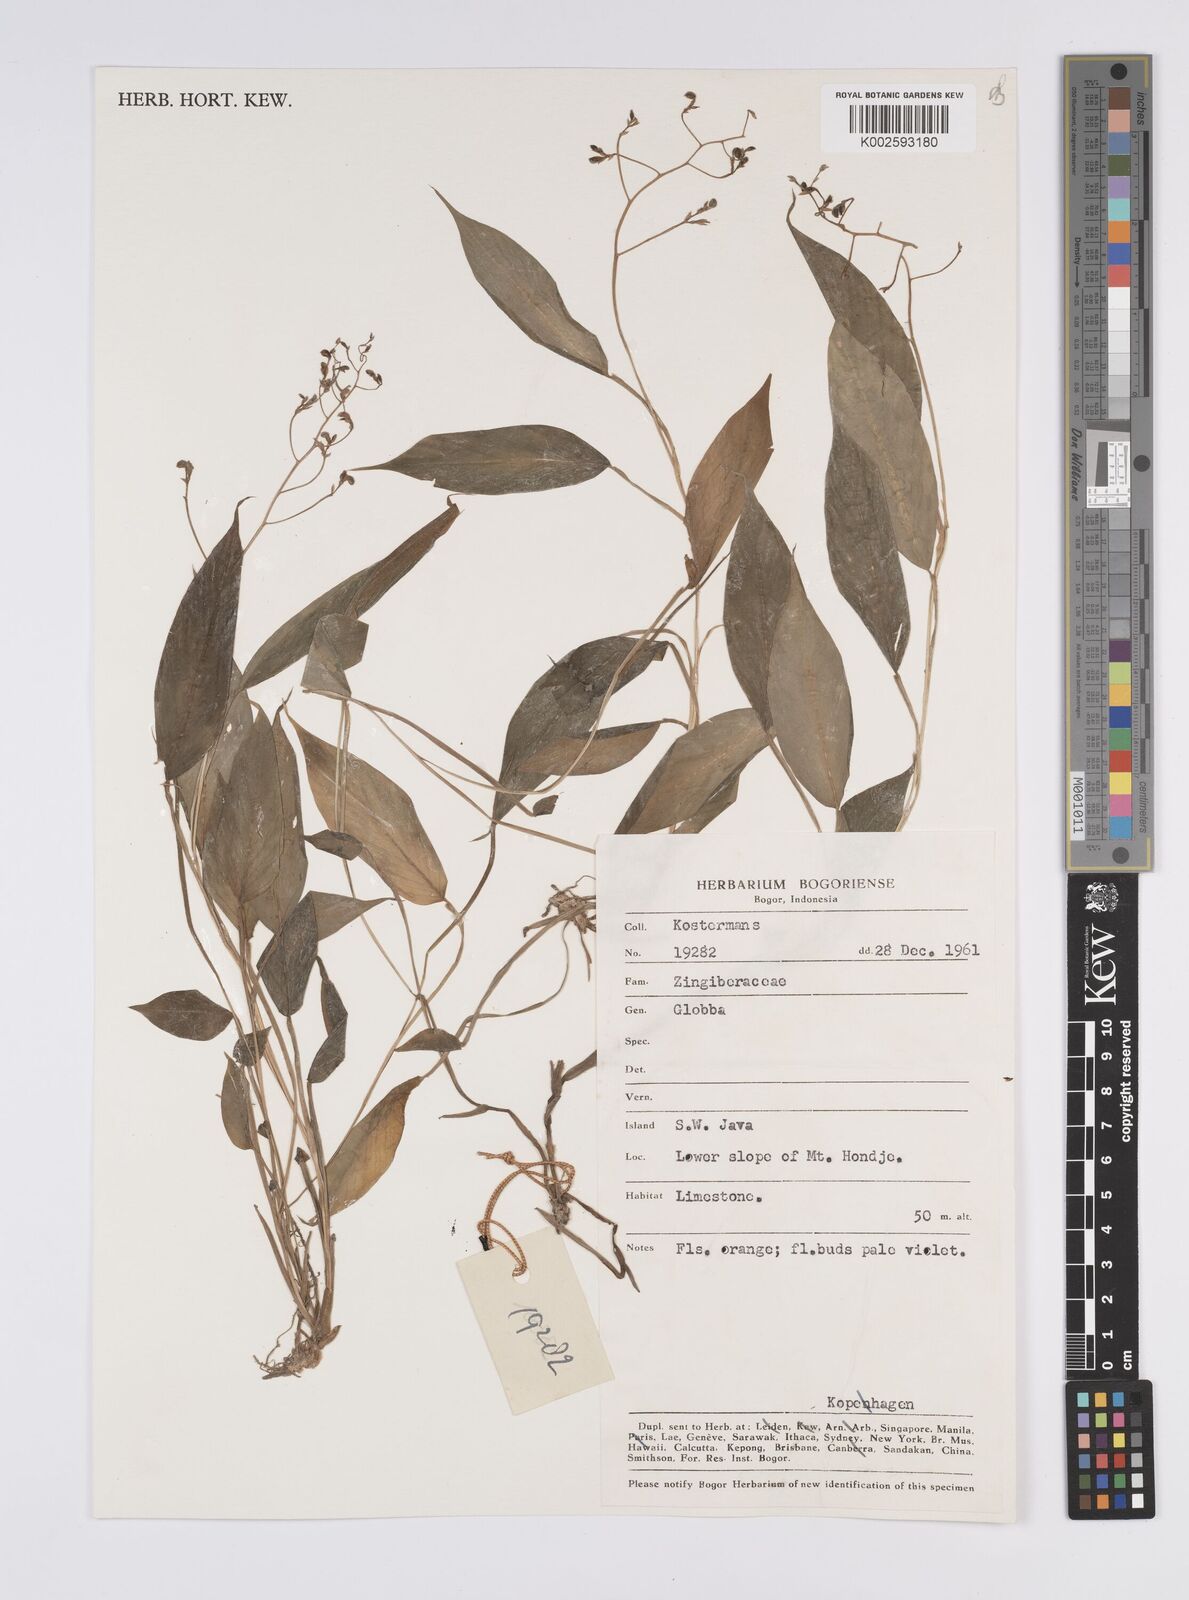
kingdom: Plantae
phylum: Tracheophyta
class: Liliopsida
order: Zingiberales
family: Zingiberaceae
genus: Globba
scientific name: Globba
